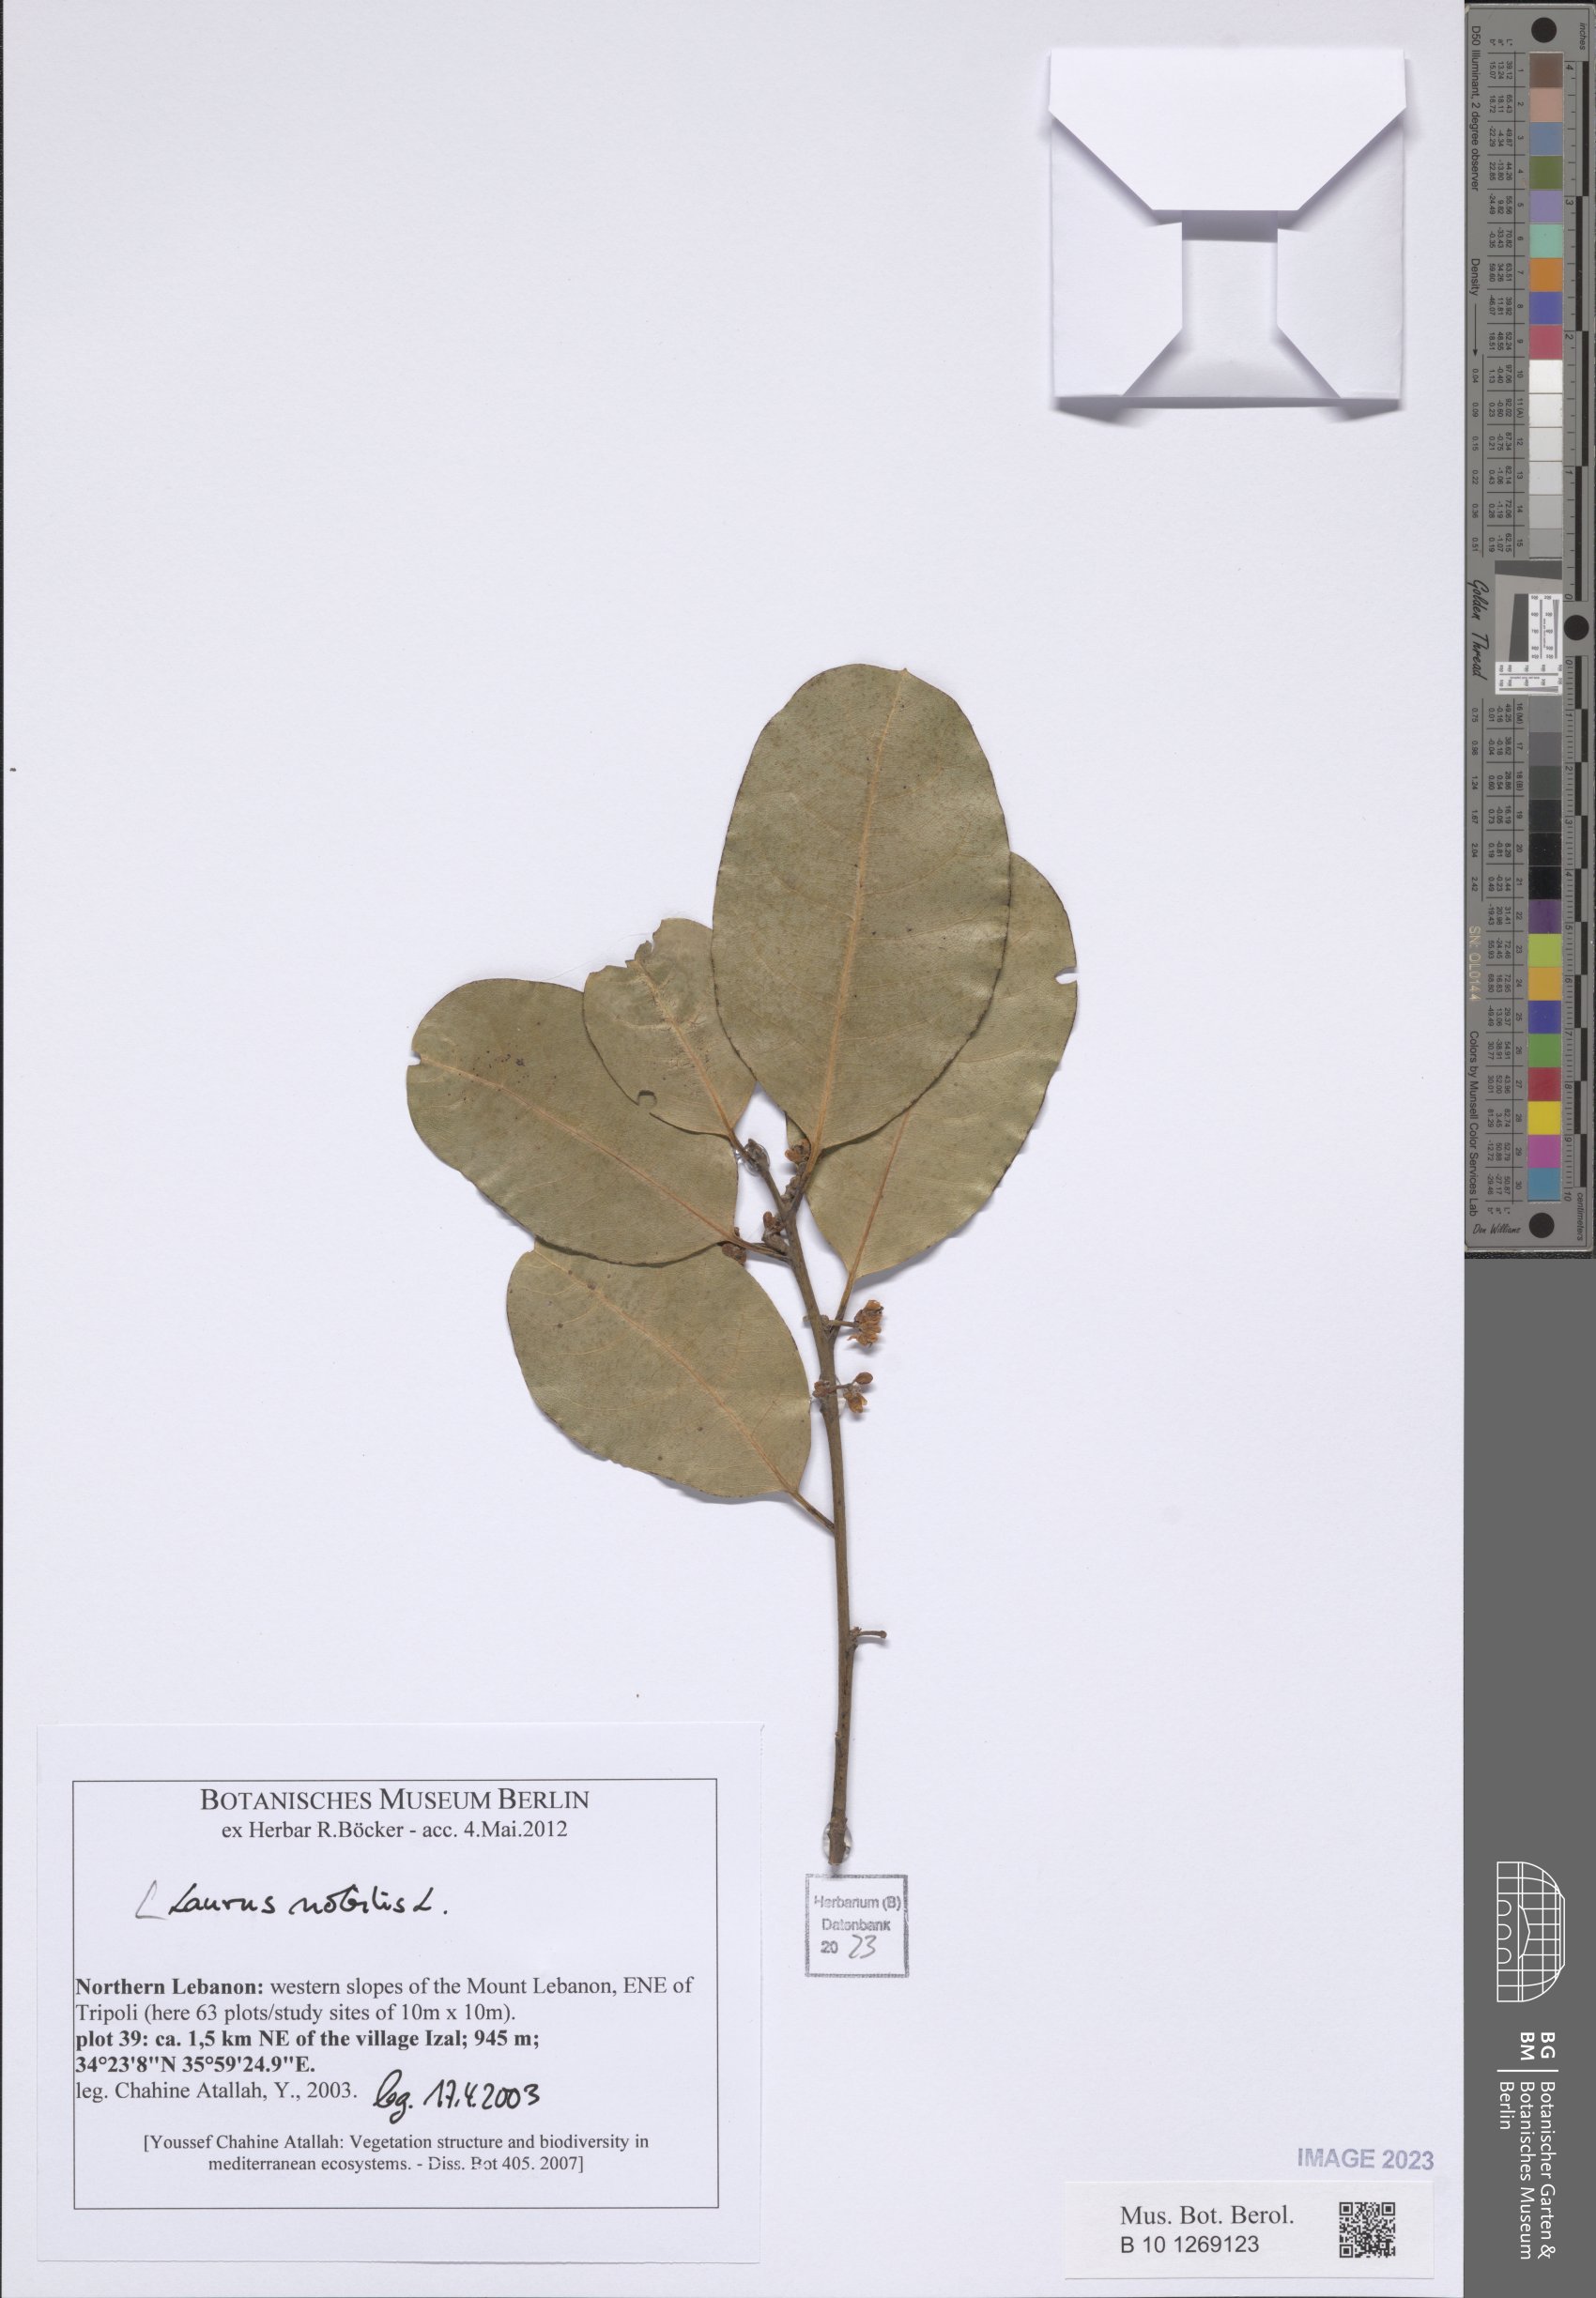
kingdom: Plantae
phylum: Tracheophyta
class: Magnoliopsida
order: Laurales
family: Lauraceae
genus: Laurus
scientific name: Laurus nobilis
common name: Bay
